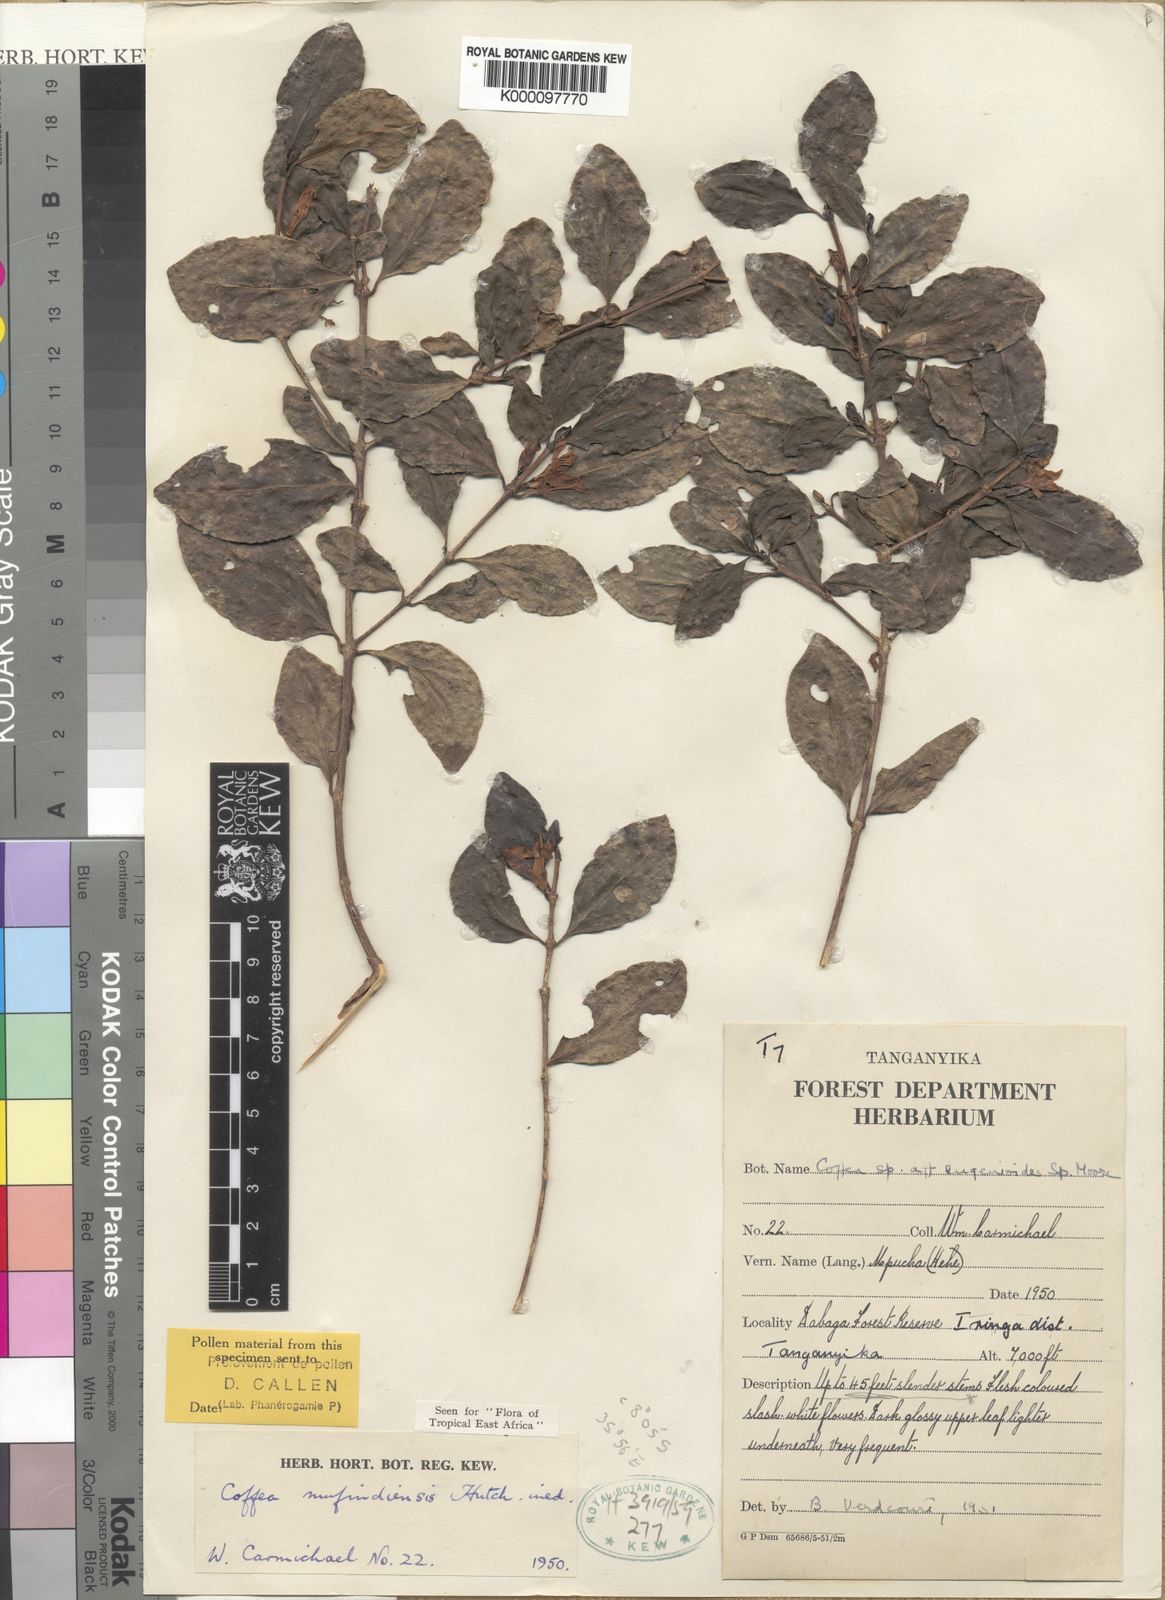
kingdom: Plantae
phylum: Tracheophyta
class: Magnoliopsida
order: Gentianales
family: Rubiaceae
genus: Coffea
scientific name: Coffea mufindiensis
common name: Wild coffee
